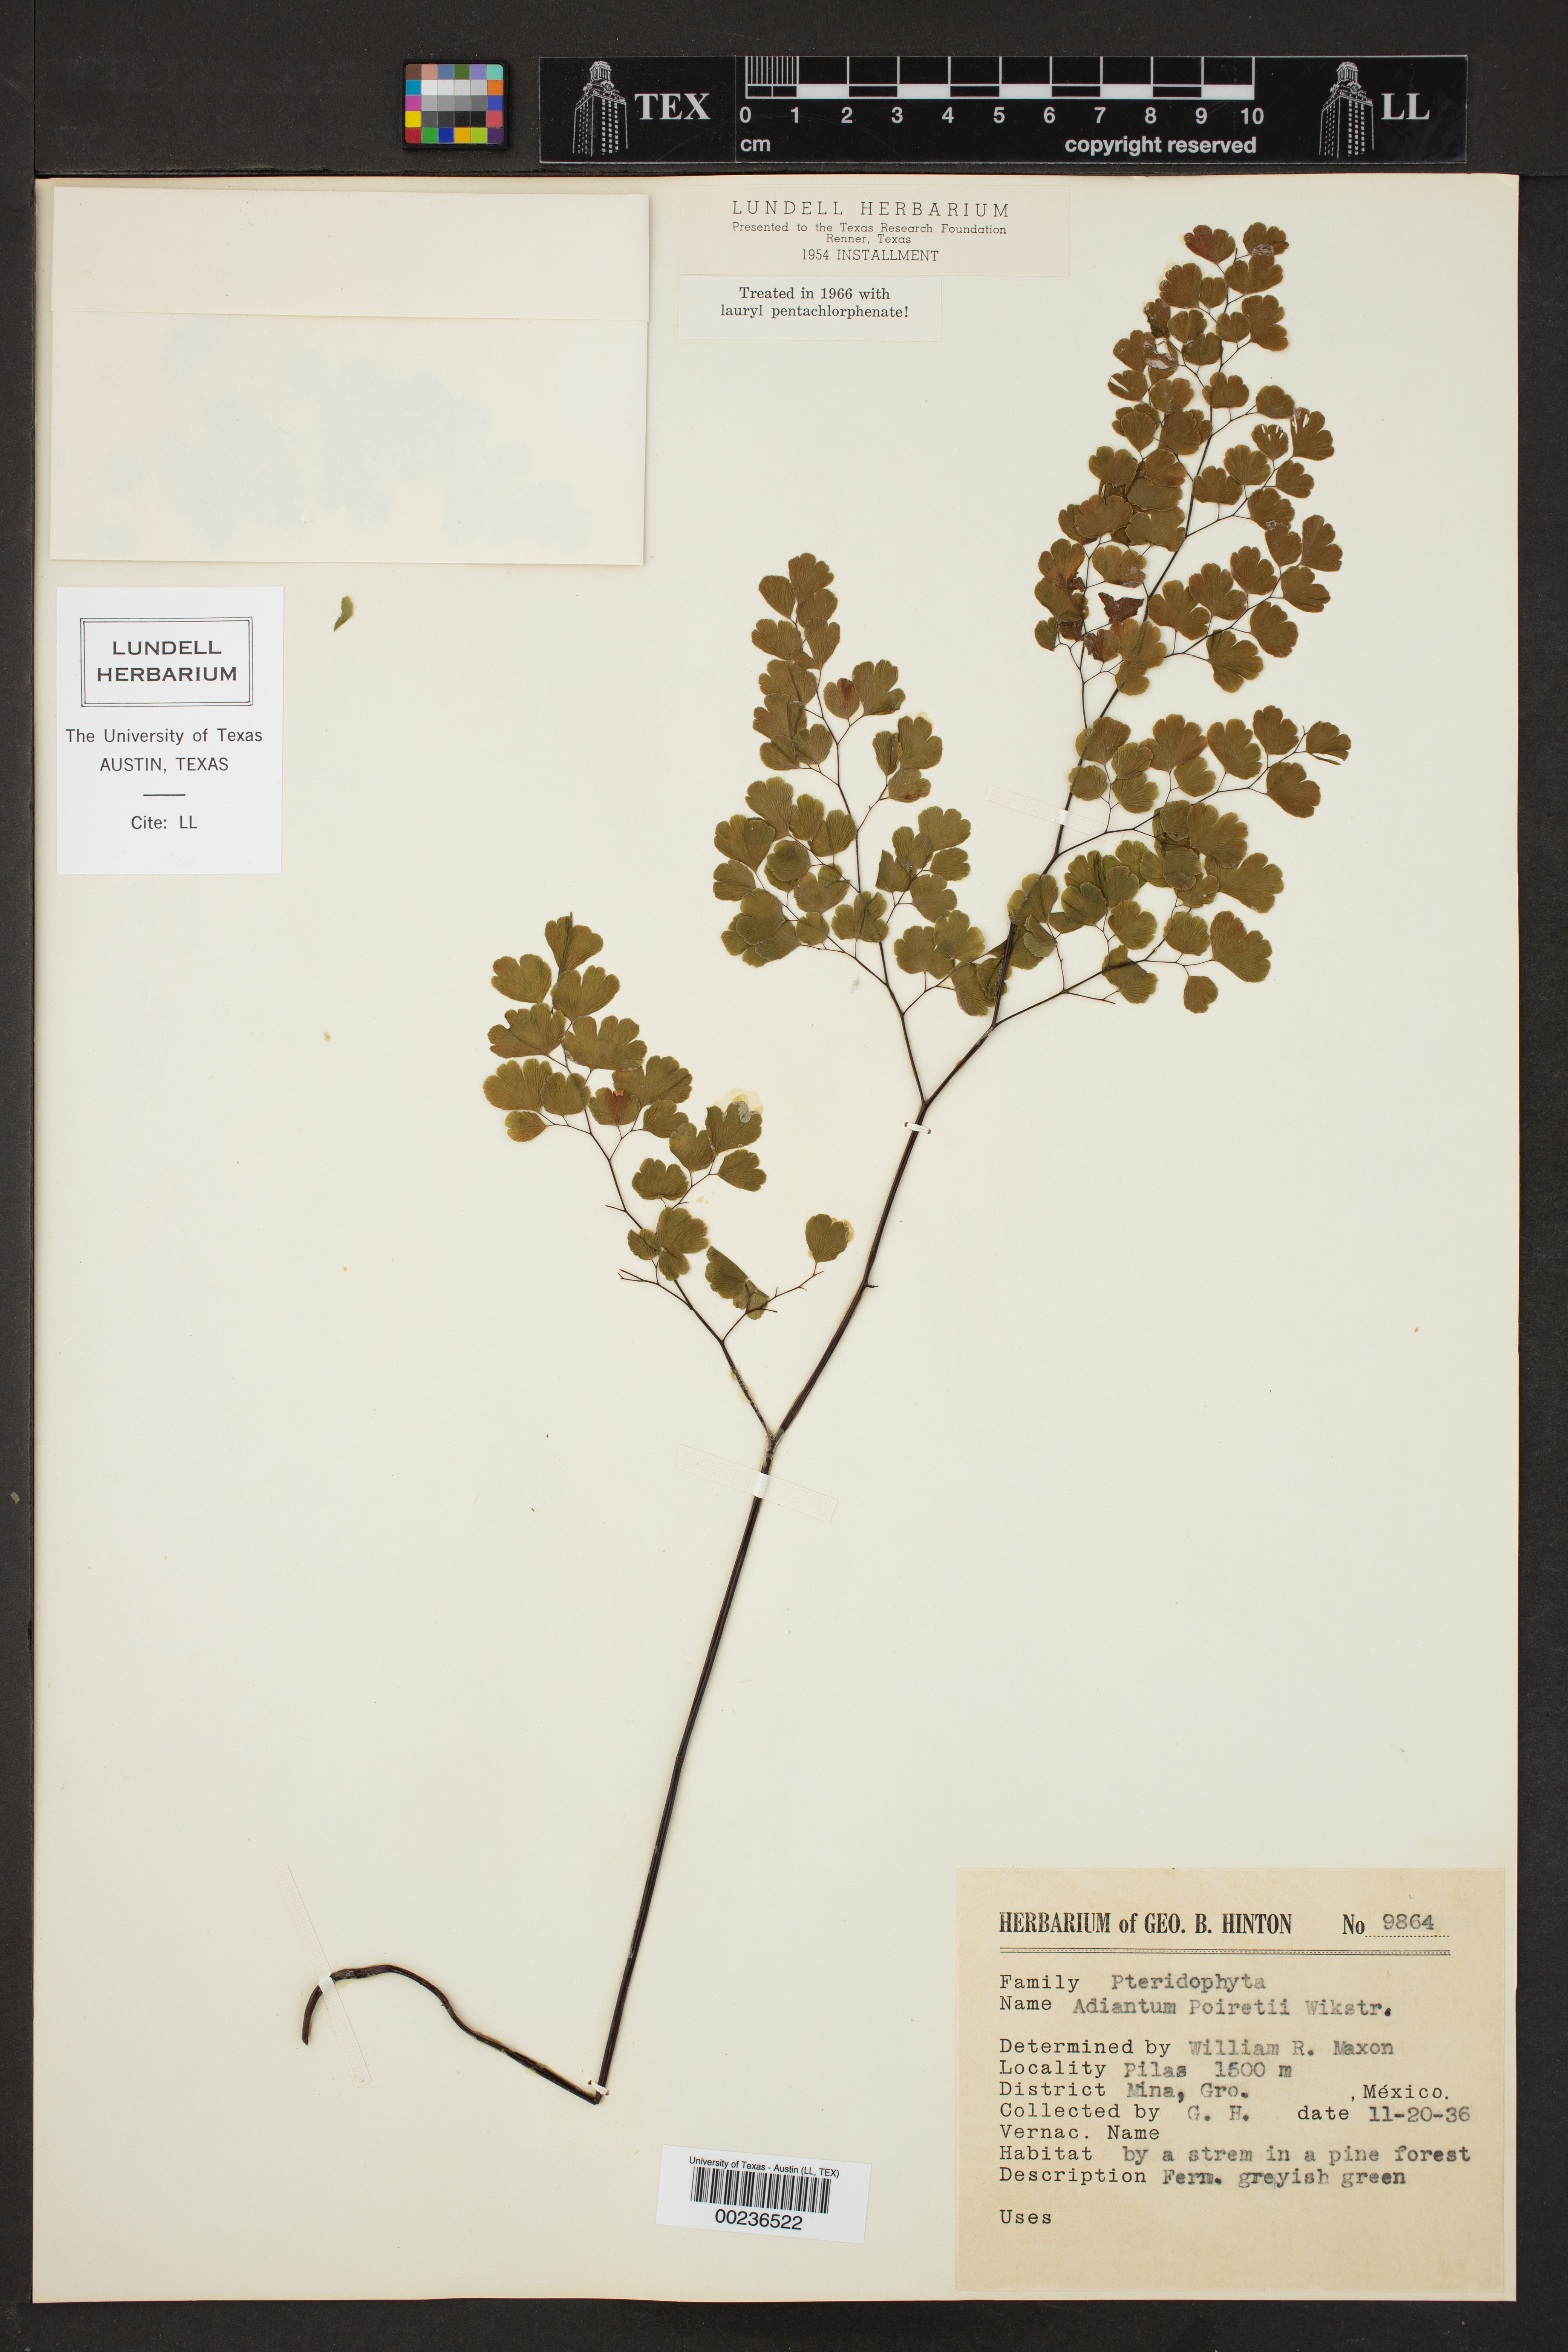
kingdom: Plantae
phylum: Tracheophyta
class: Polypodiopsida
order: Polypodiales
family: Pteridaceae
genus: Adiantum
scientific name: Adiantum poiretii
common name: Mexican maidenhair
